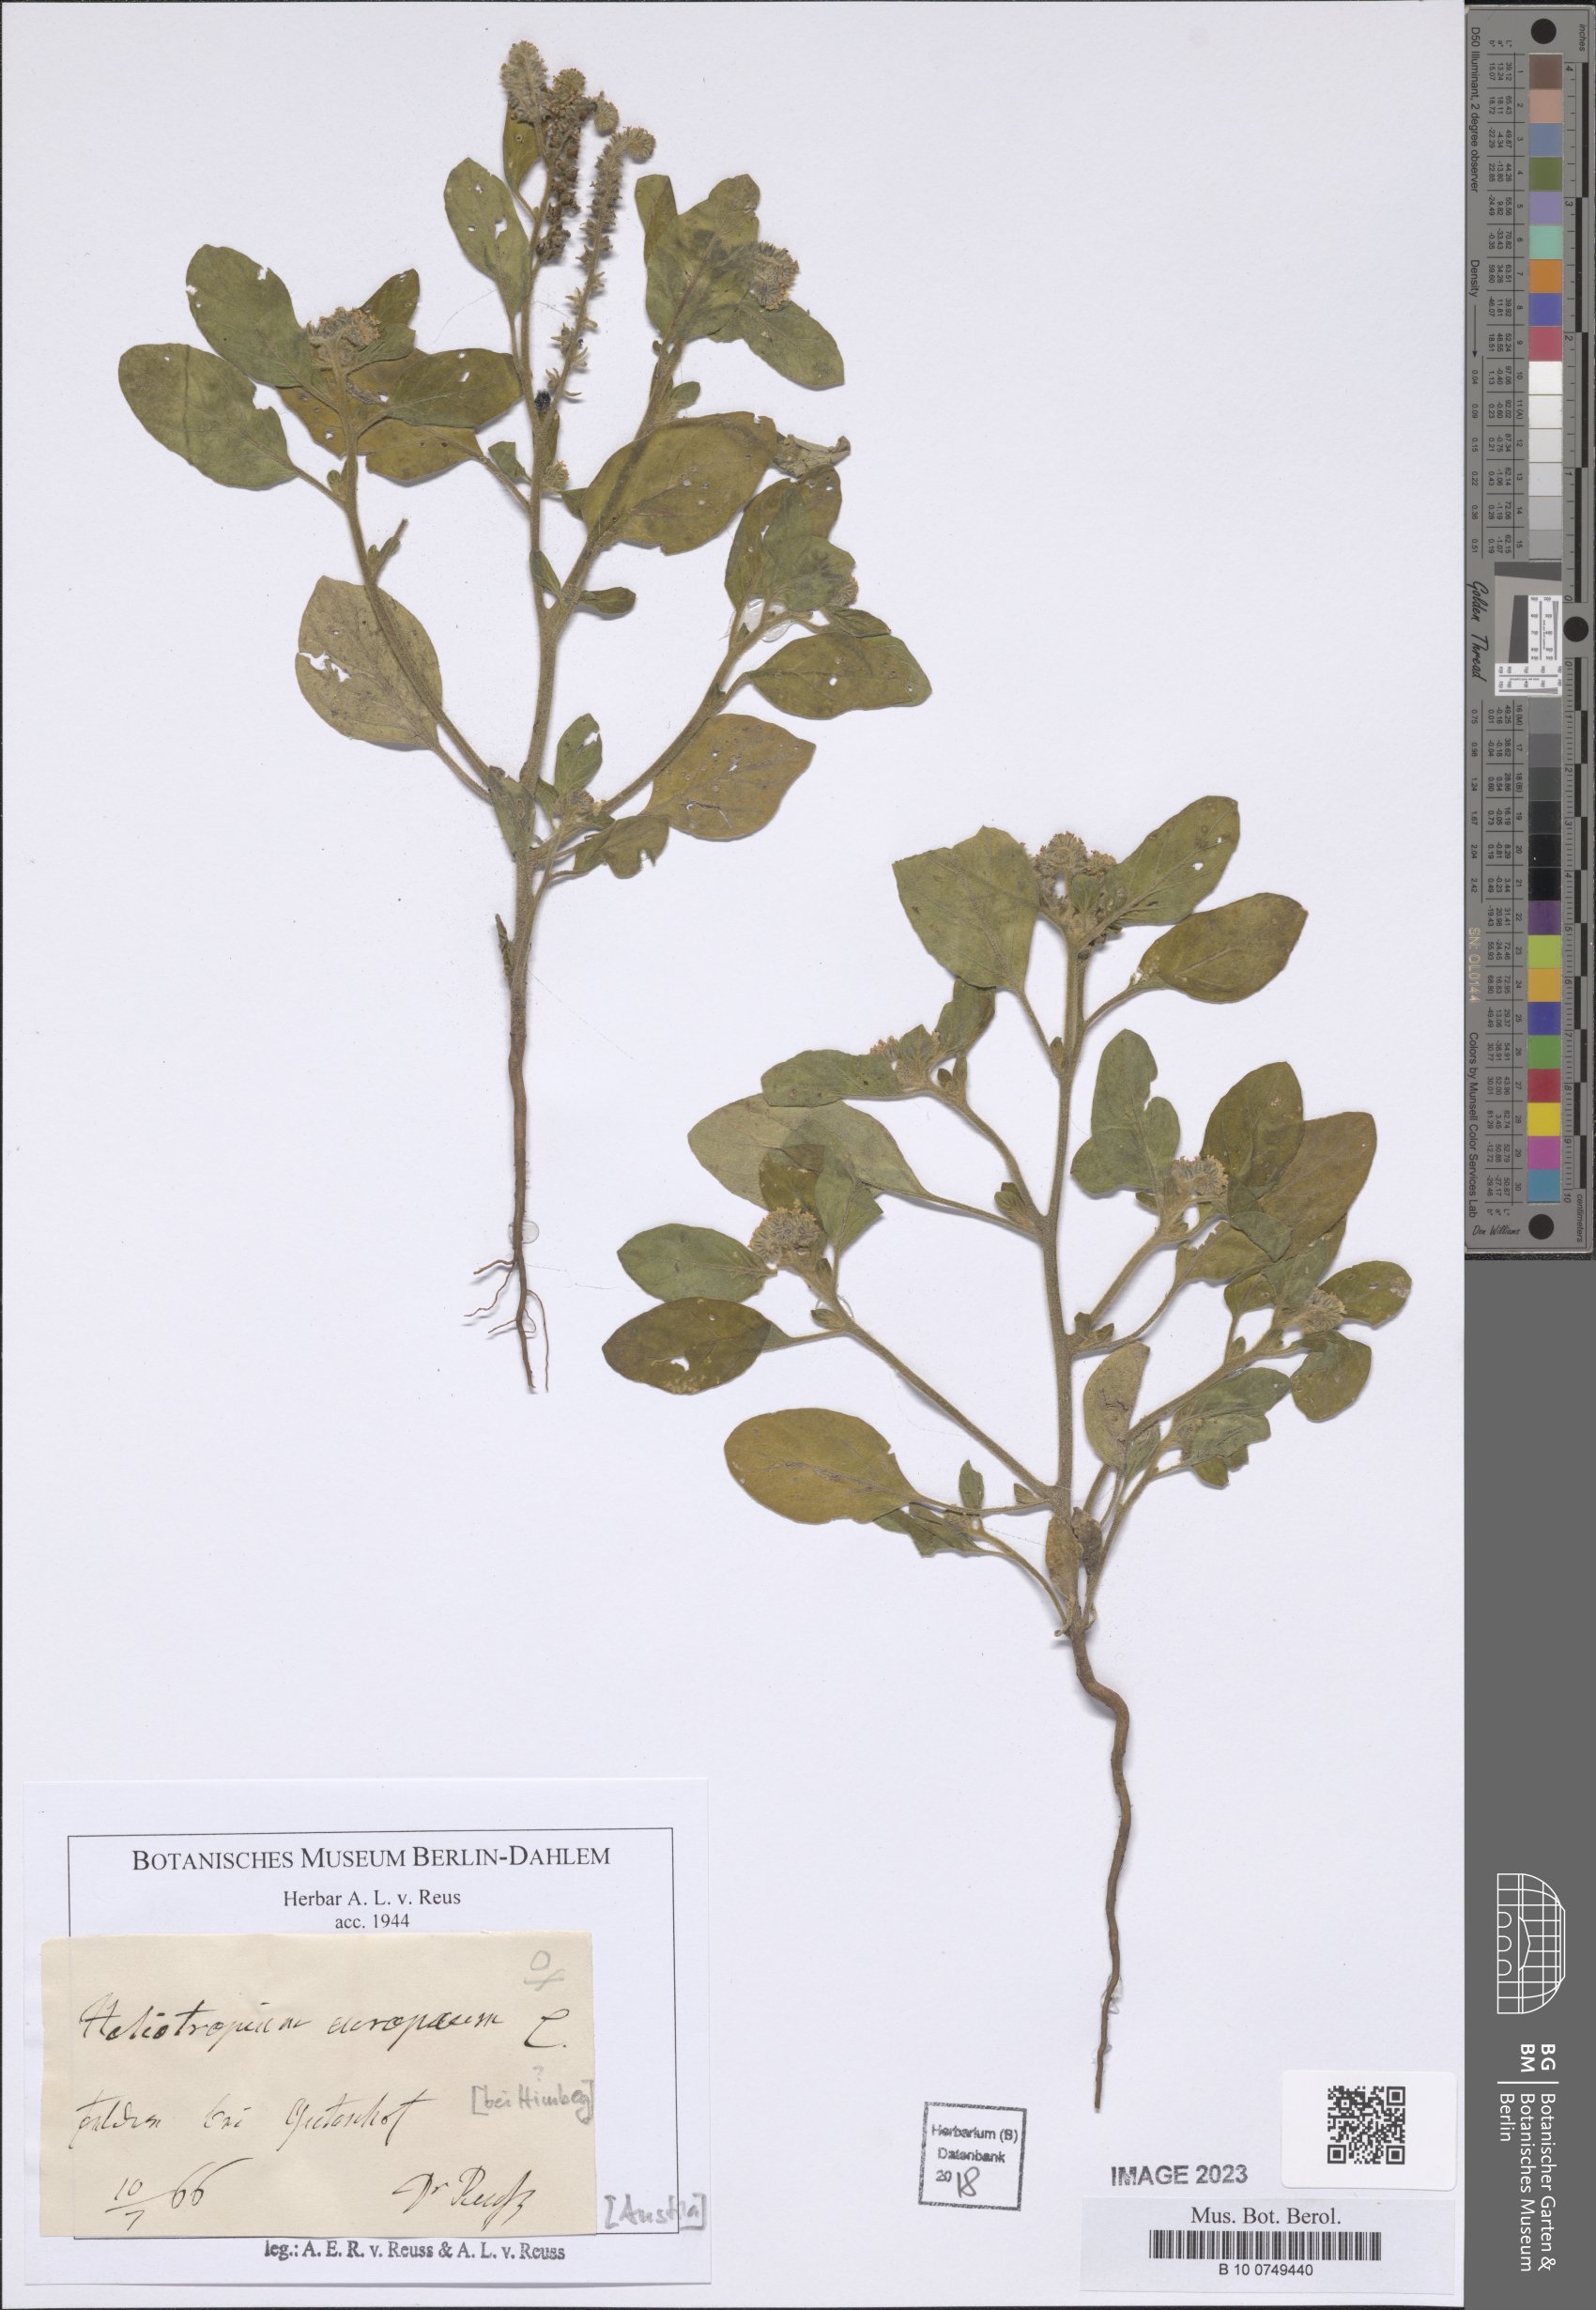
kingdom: Plantae
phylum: Tracheophyta
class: Magnoliopsida
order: Boraginales
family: Heliotropiaceae
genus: Heliotropium
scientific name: Heliotropium europaeum
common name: European heliotrope
